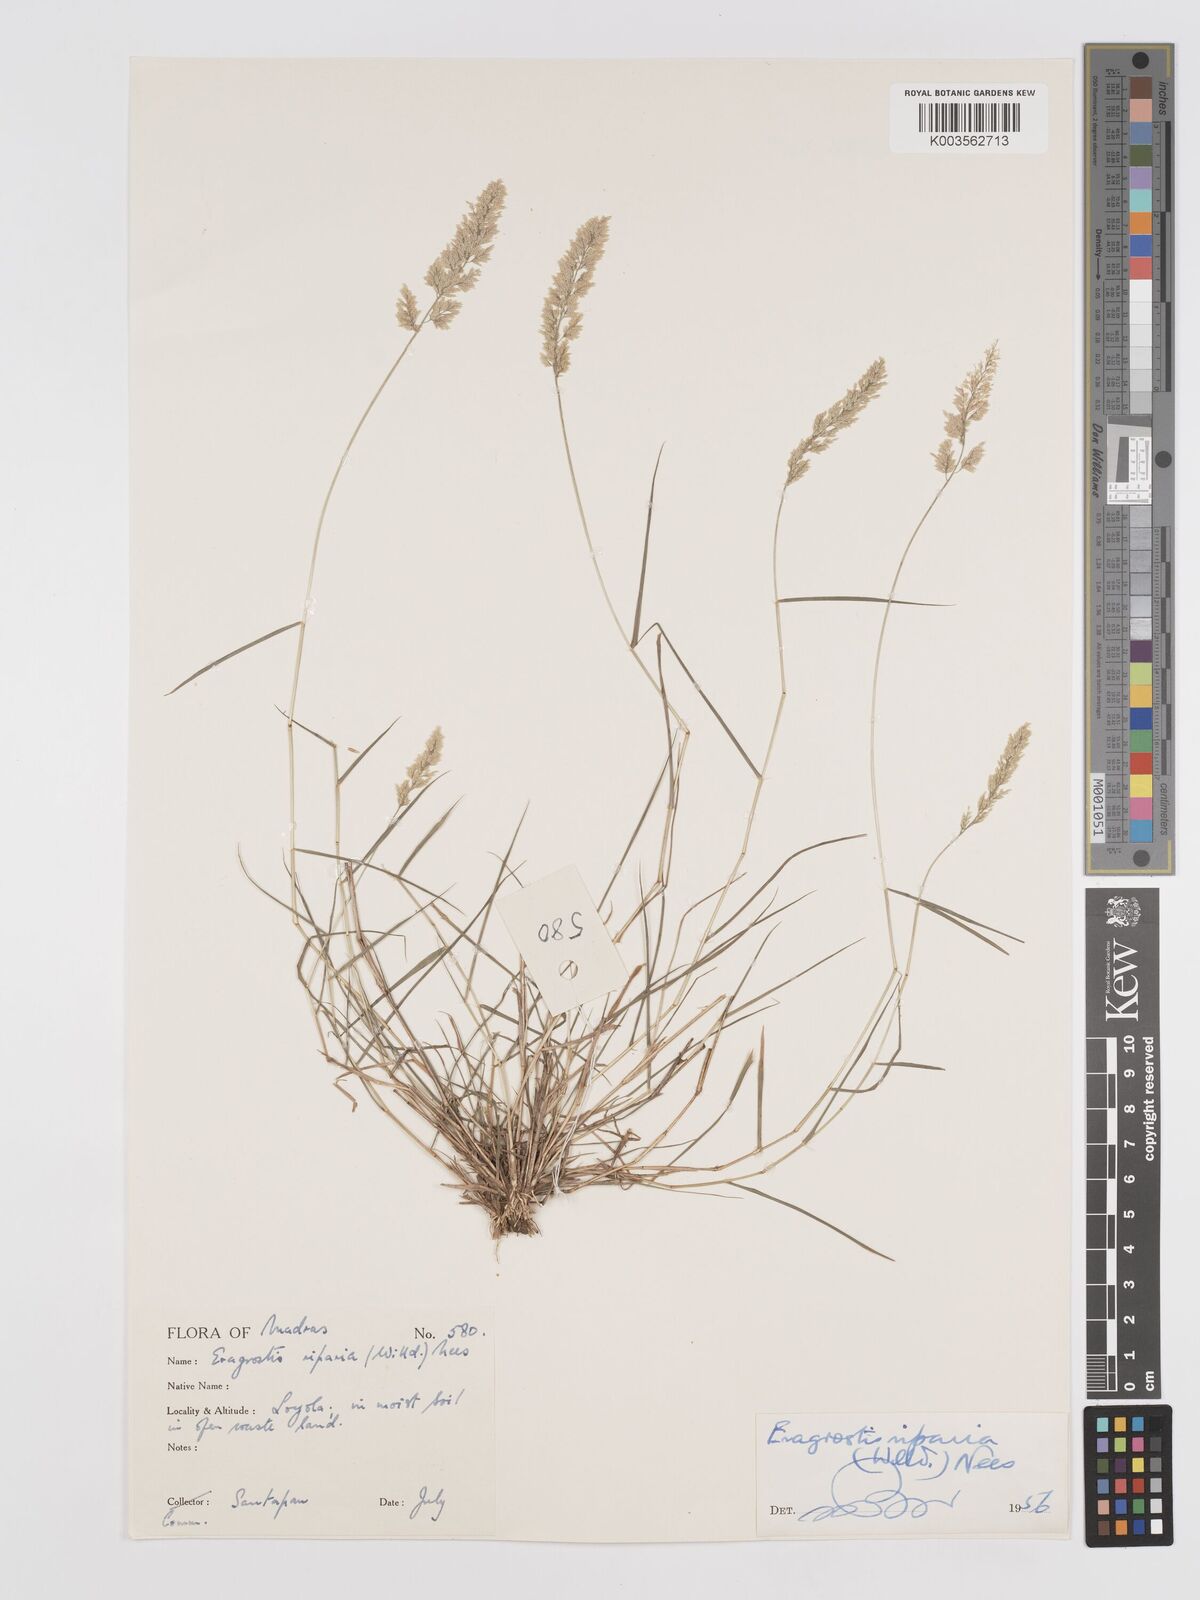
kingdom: Plantae
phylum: Tracheophyta
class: Liliopsida
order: Poales
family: Poaceae
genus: Eragrostis
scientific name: Eragrostis riparia
